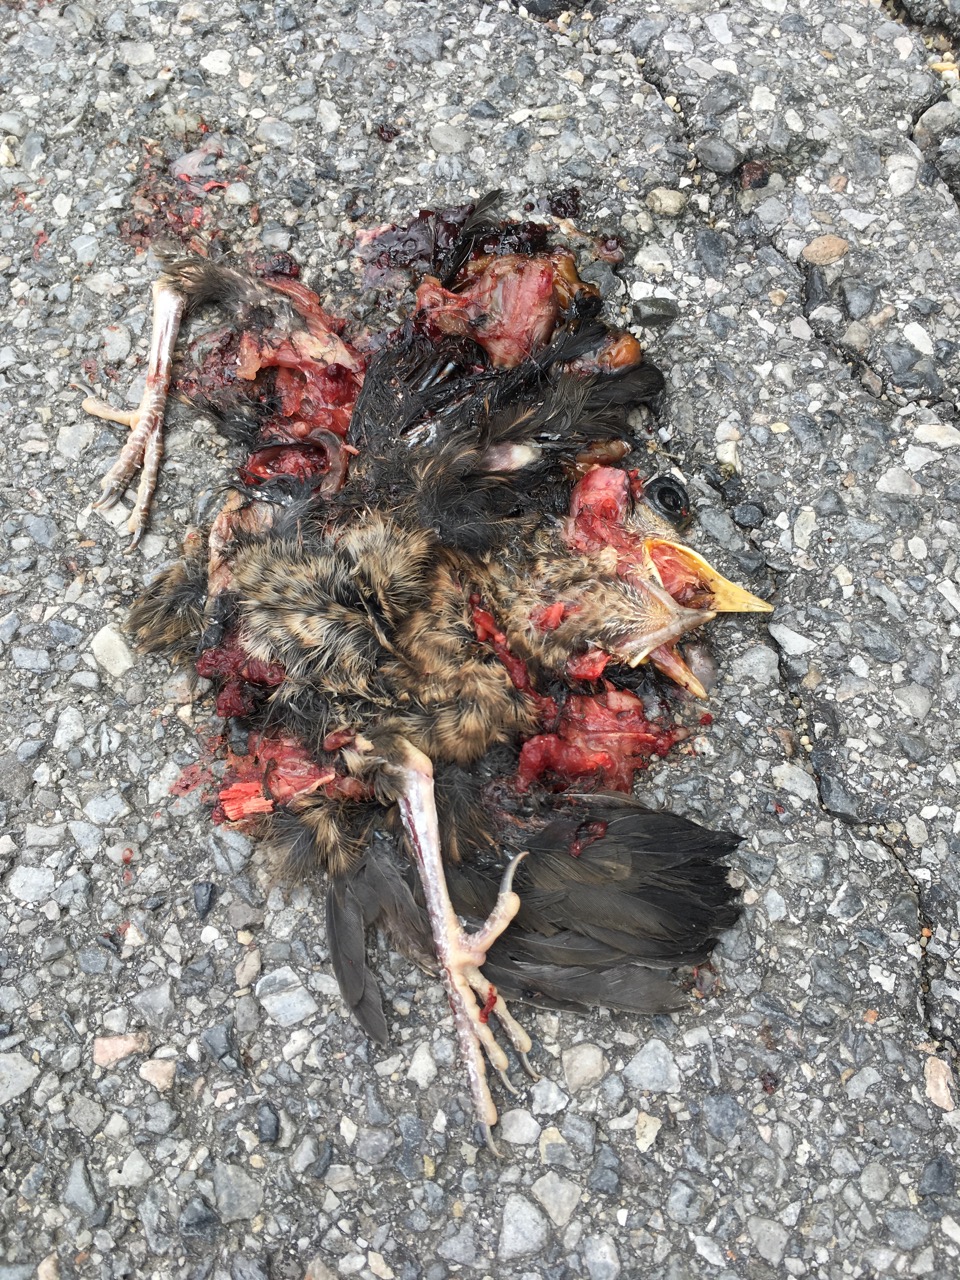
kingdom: Animalia
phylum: Chordata
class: Aves
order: Passeriformes
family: Turdidae
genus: Turdus
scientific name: Turdus merula
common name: Common blackbird
